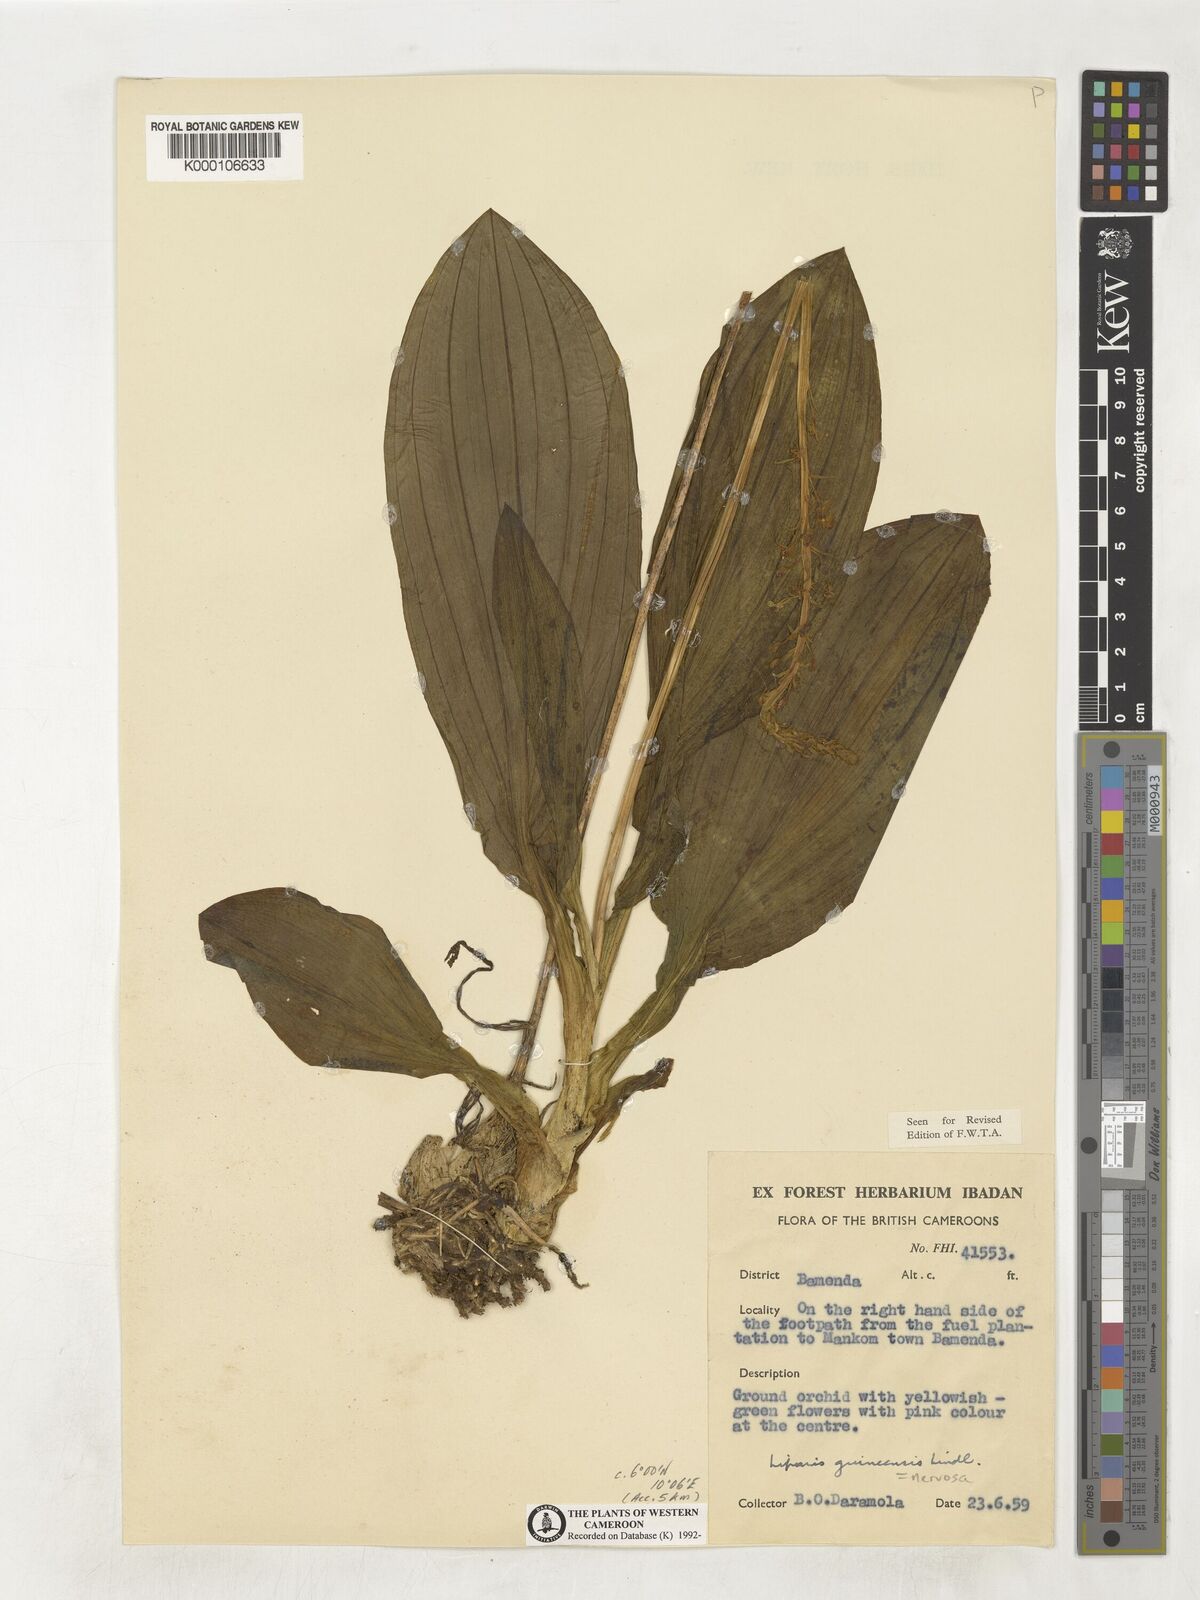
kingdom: Plantae
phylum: Tracheophyta
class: Liliopsida
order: Asparagales
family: Orchidaceae
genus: Liparis
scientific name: Liparis nervosa
